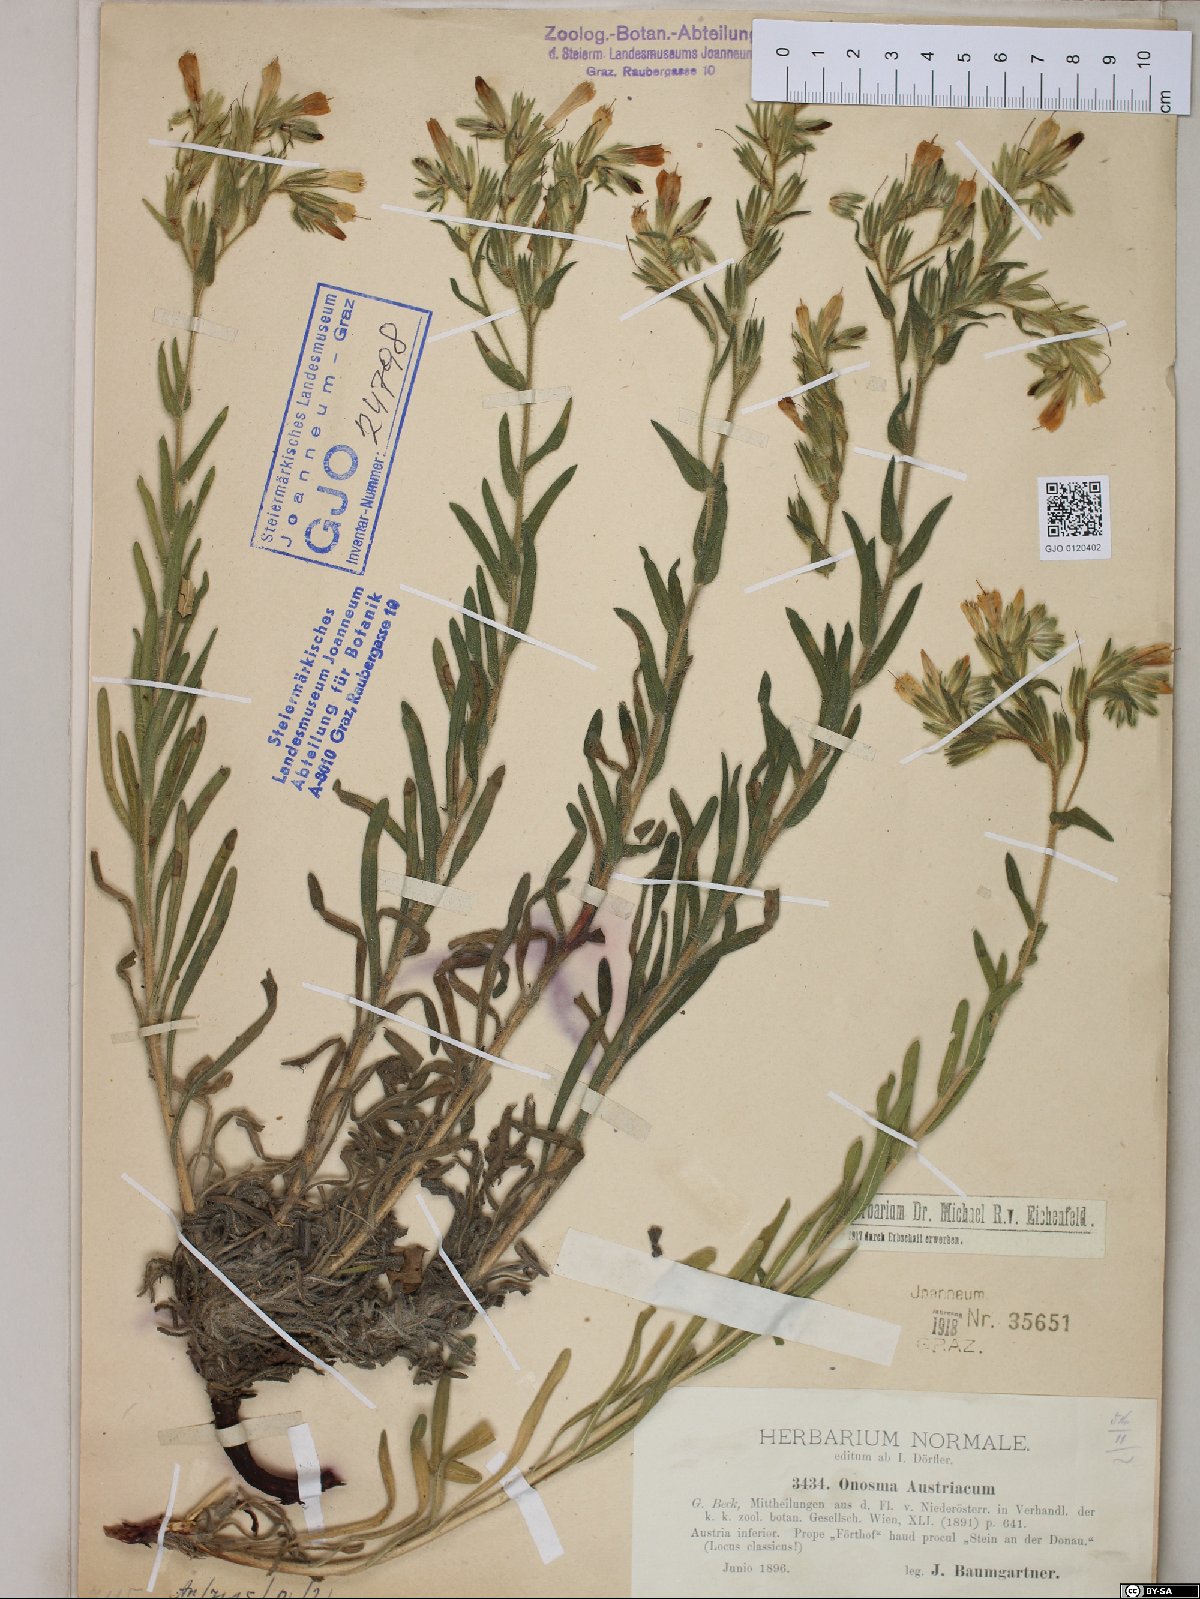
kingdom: Plantae
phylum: Tracheophyta
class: Magnoliopsida
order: Boraginales
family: Boraginaceae
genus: Onosma
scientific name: Onosma arenaria
